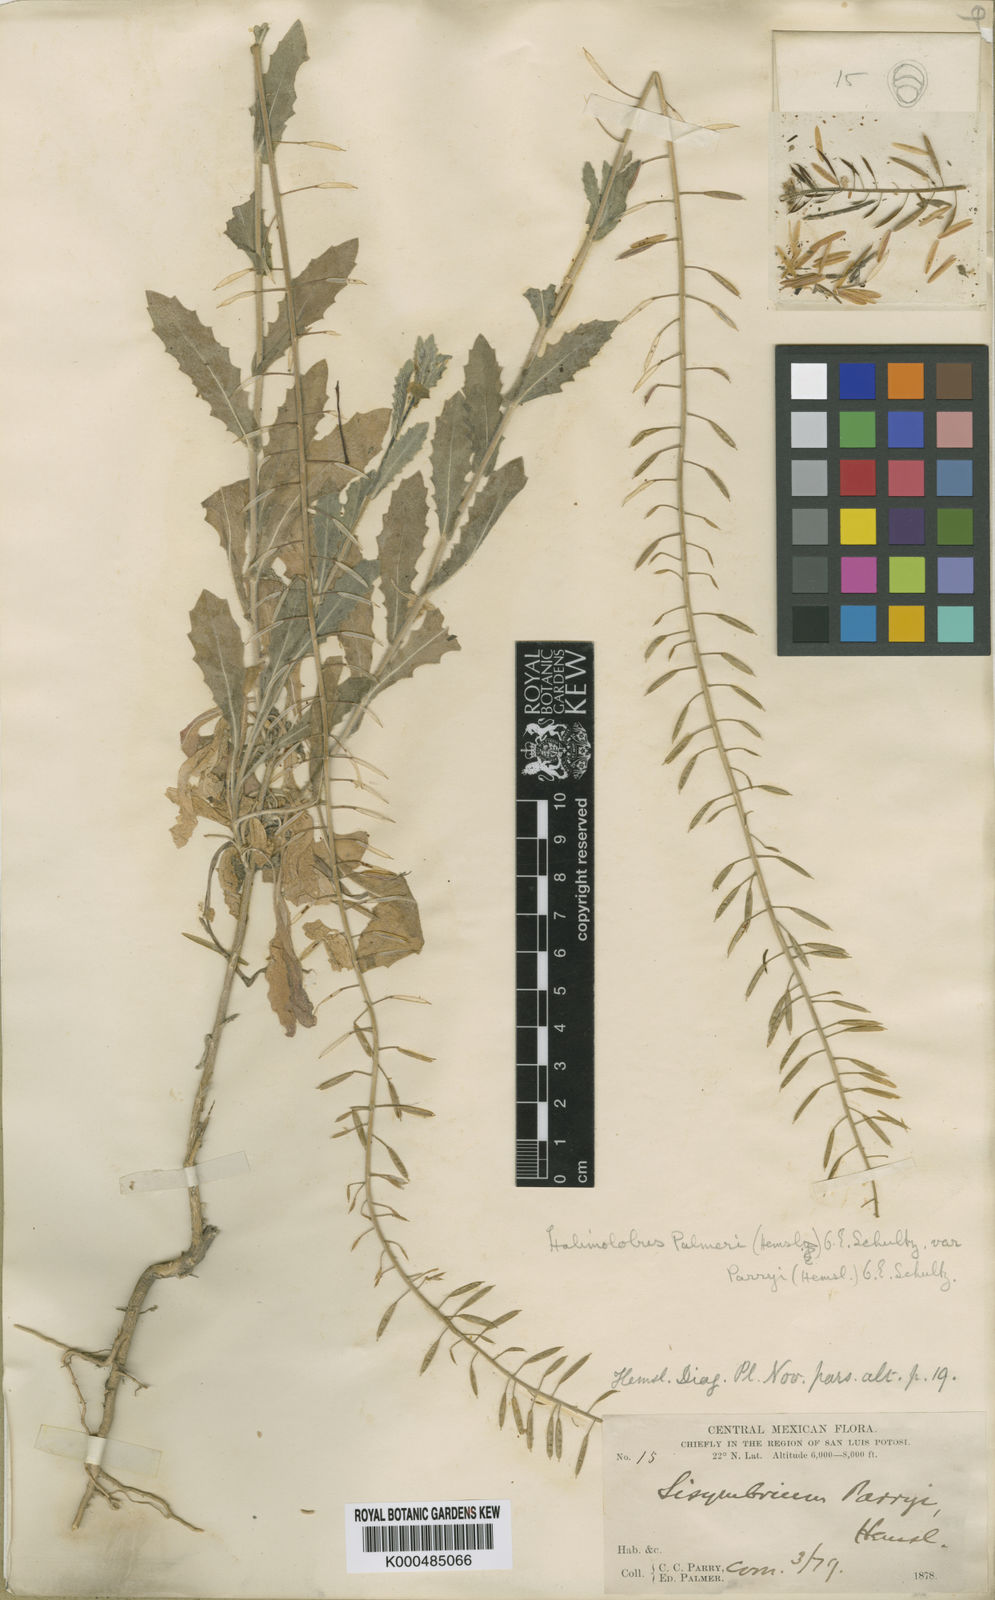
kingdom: Plantae
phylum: Tracheophyta
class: Magnoliopsida
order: Brassicales
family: Brassicaceae
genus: Exhalimolobos
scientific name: Exhalimolobos parryi
